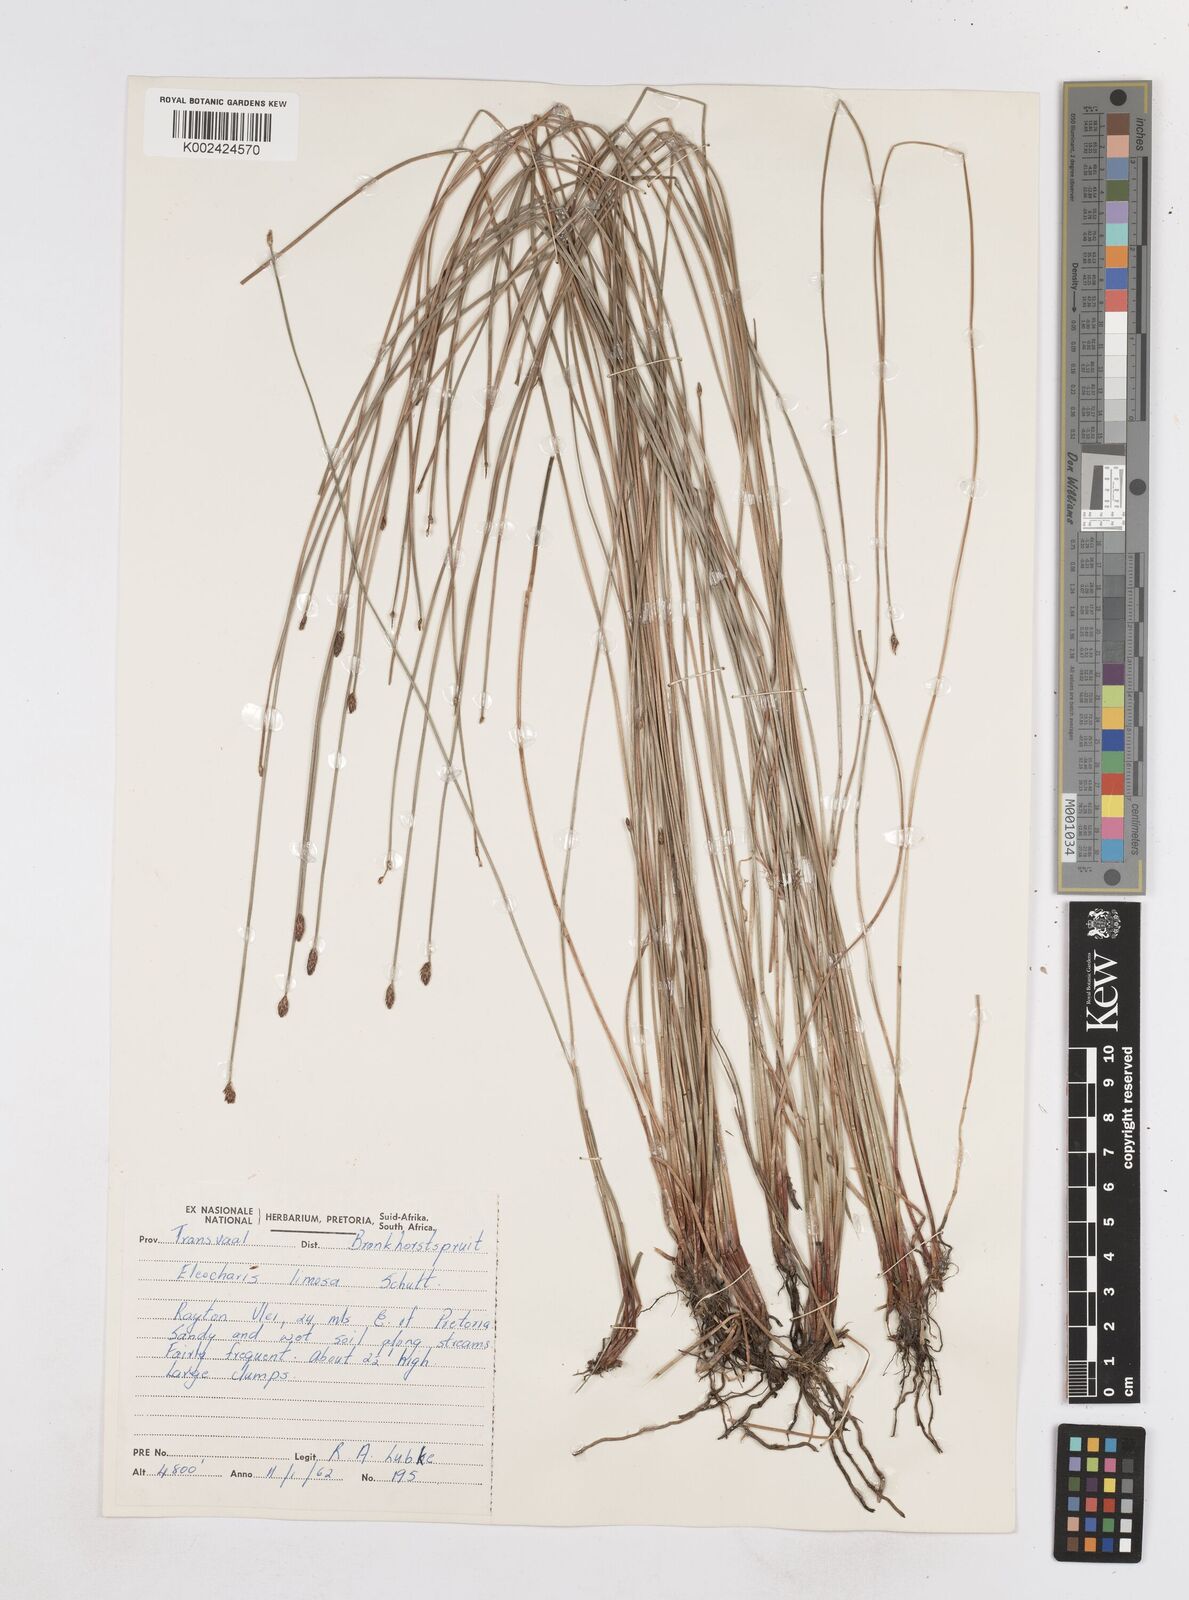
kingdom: Plantae
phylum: Tracheophyta
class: Liliopsida
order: Poales
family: Cyperaceae
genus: Eleocharis
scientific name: Eleocharis palustris
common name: Common spike-rush
